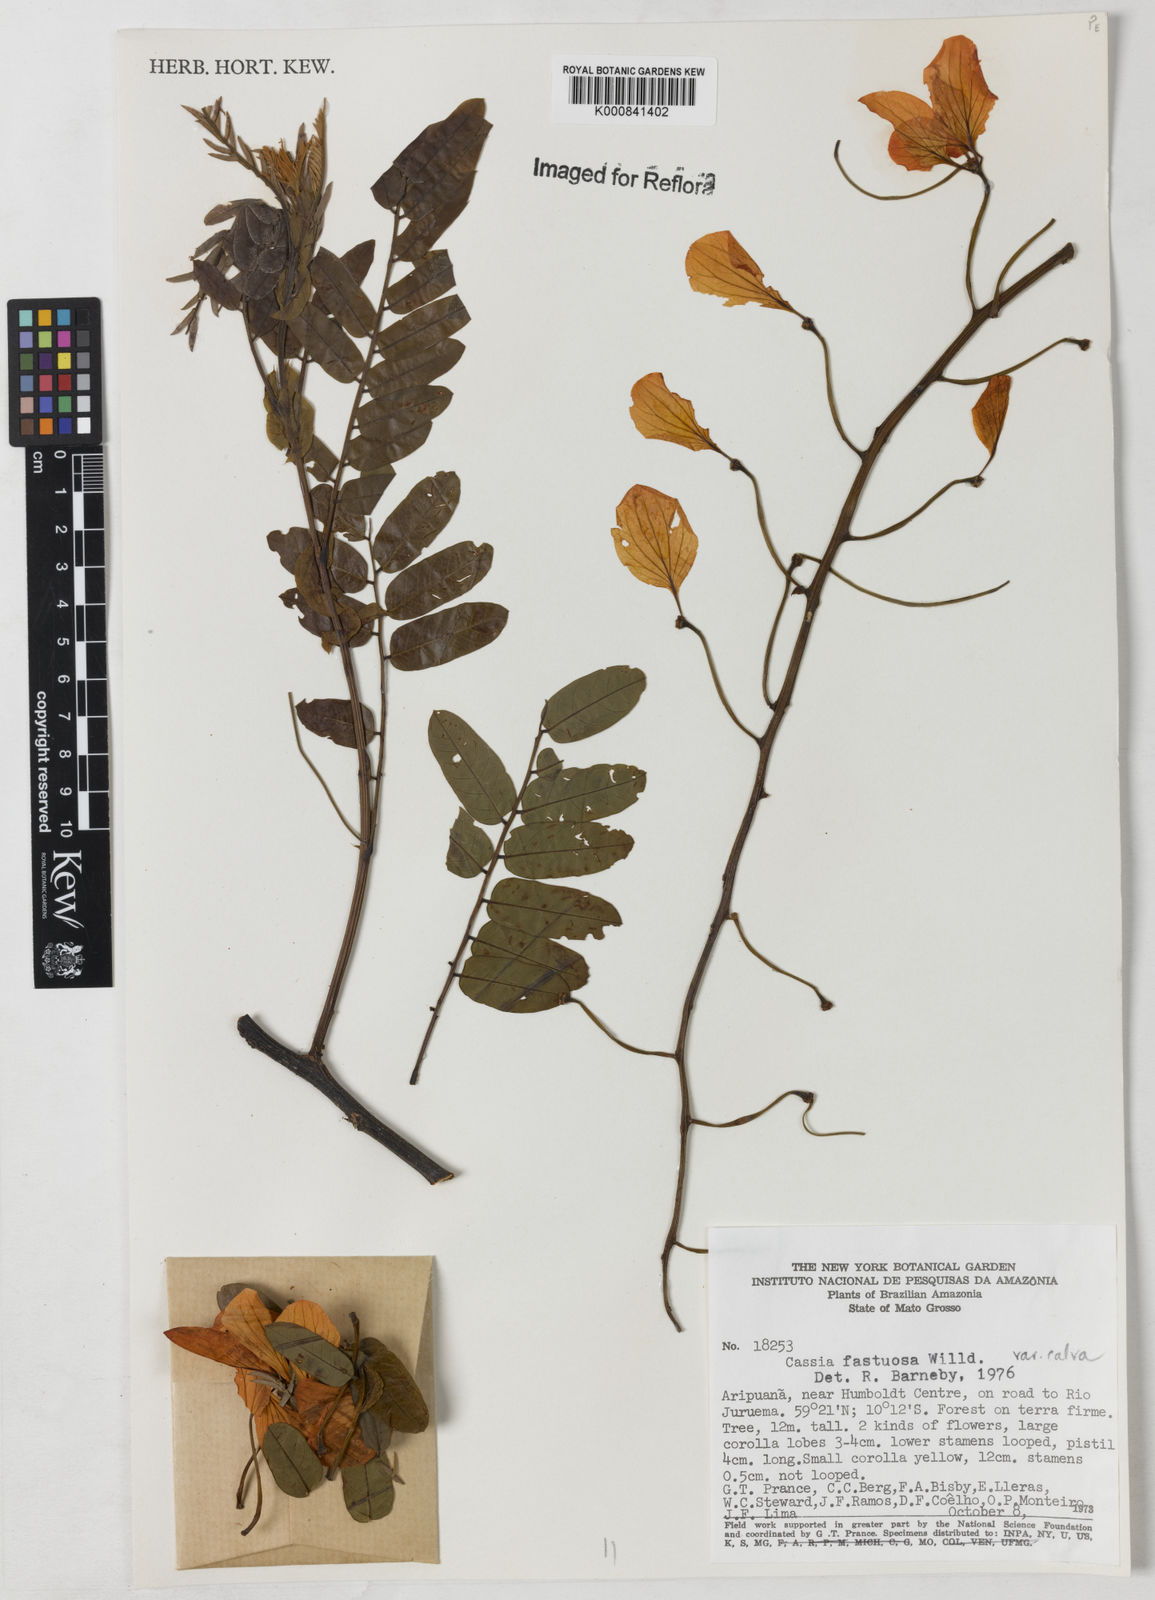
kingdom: Plantae
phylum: Tracheophyta
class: Magnoliopsida
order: Fabales
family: Fabaceae
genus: Cassia
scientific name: Cassia fastuosa
